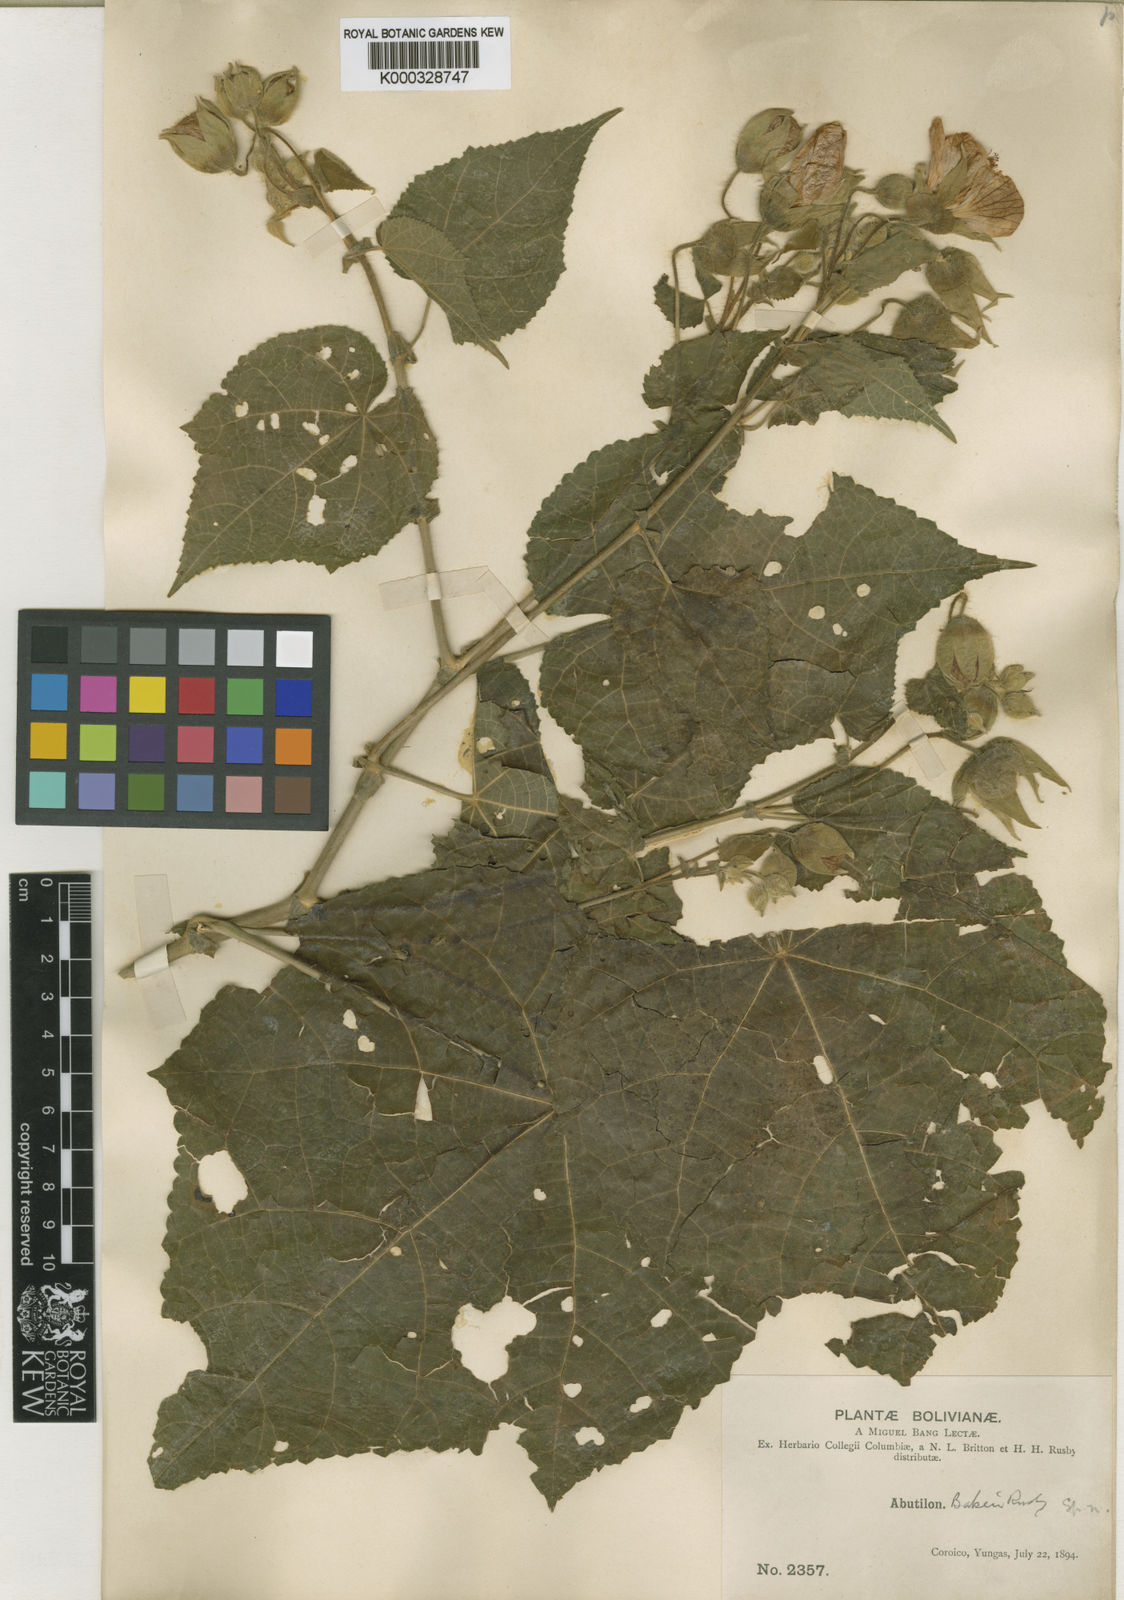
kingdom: Plantae
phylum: Tracheophyta
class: Magnoliopsida
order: Malvales
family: Malvaceae
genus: Callianthe
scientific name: Callianthe cyclonervosa
